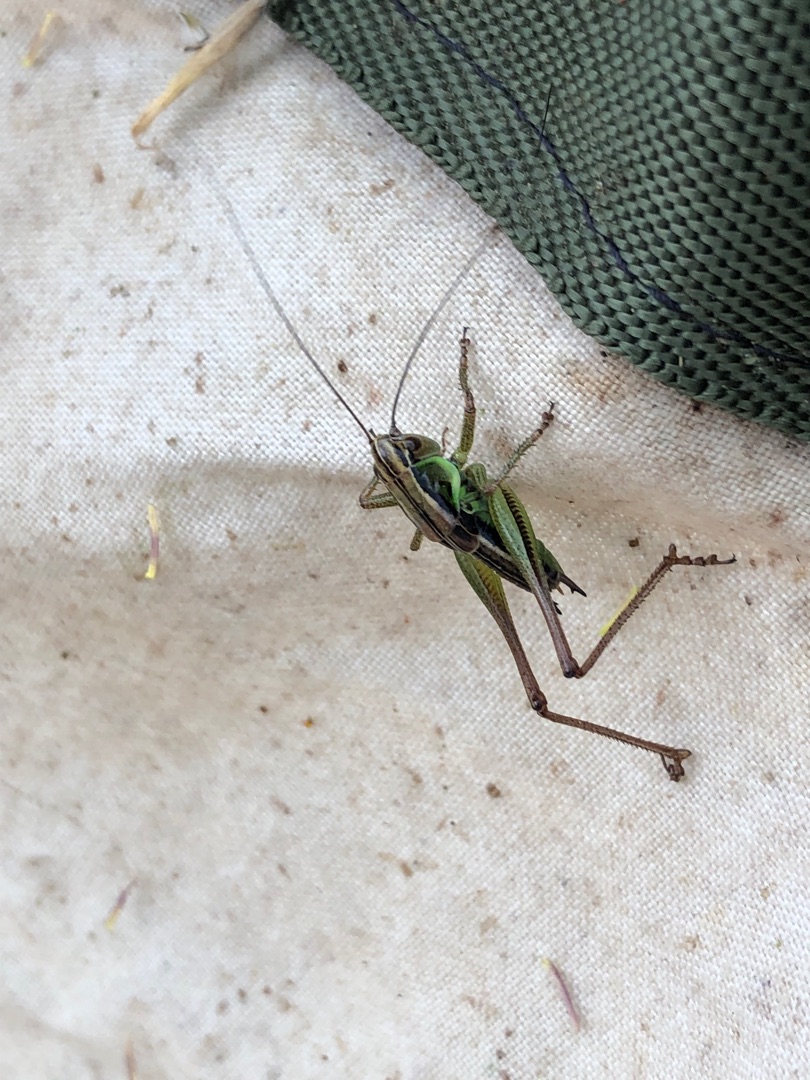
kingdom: Animalia
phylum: Arthropoda
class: Insecta
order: Orthoptera
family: Tettigoniidae
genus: Roeseliana
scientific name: Roeseliana roeselii
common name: Cikadegræshoppe
